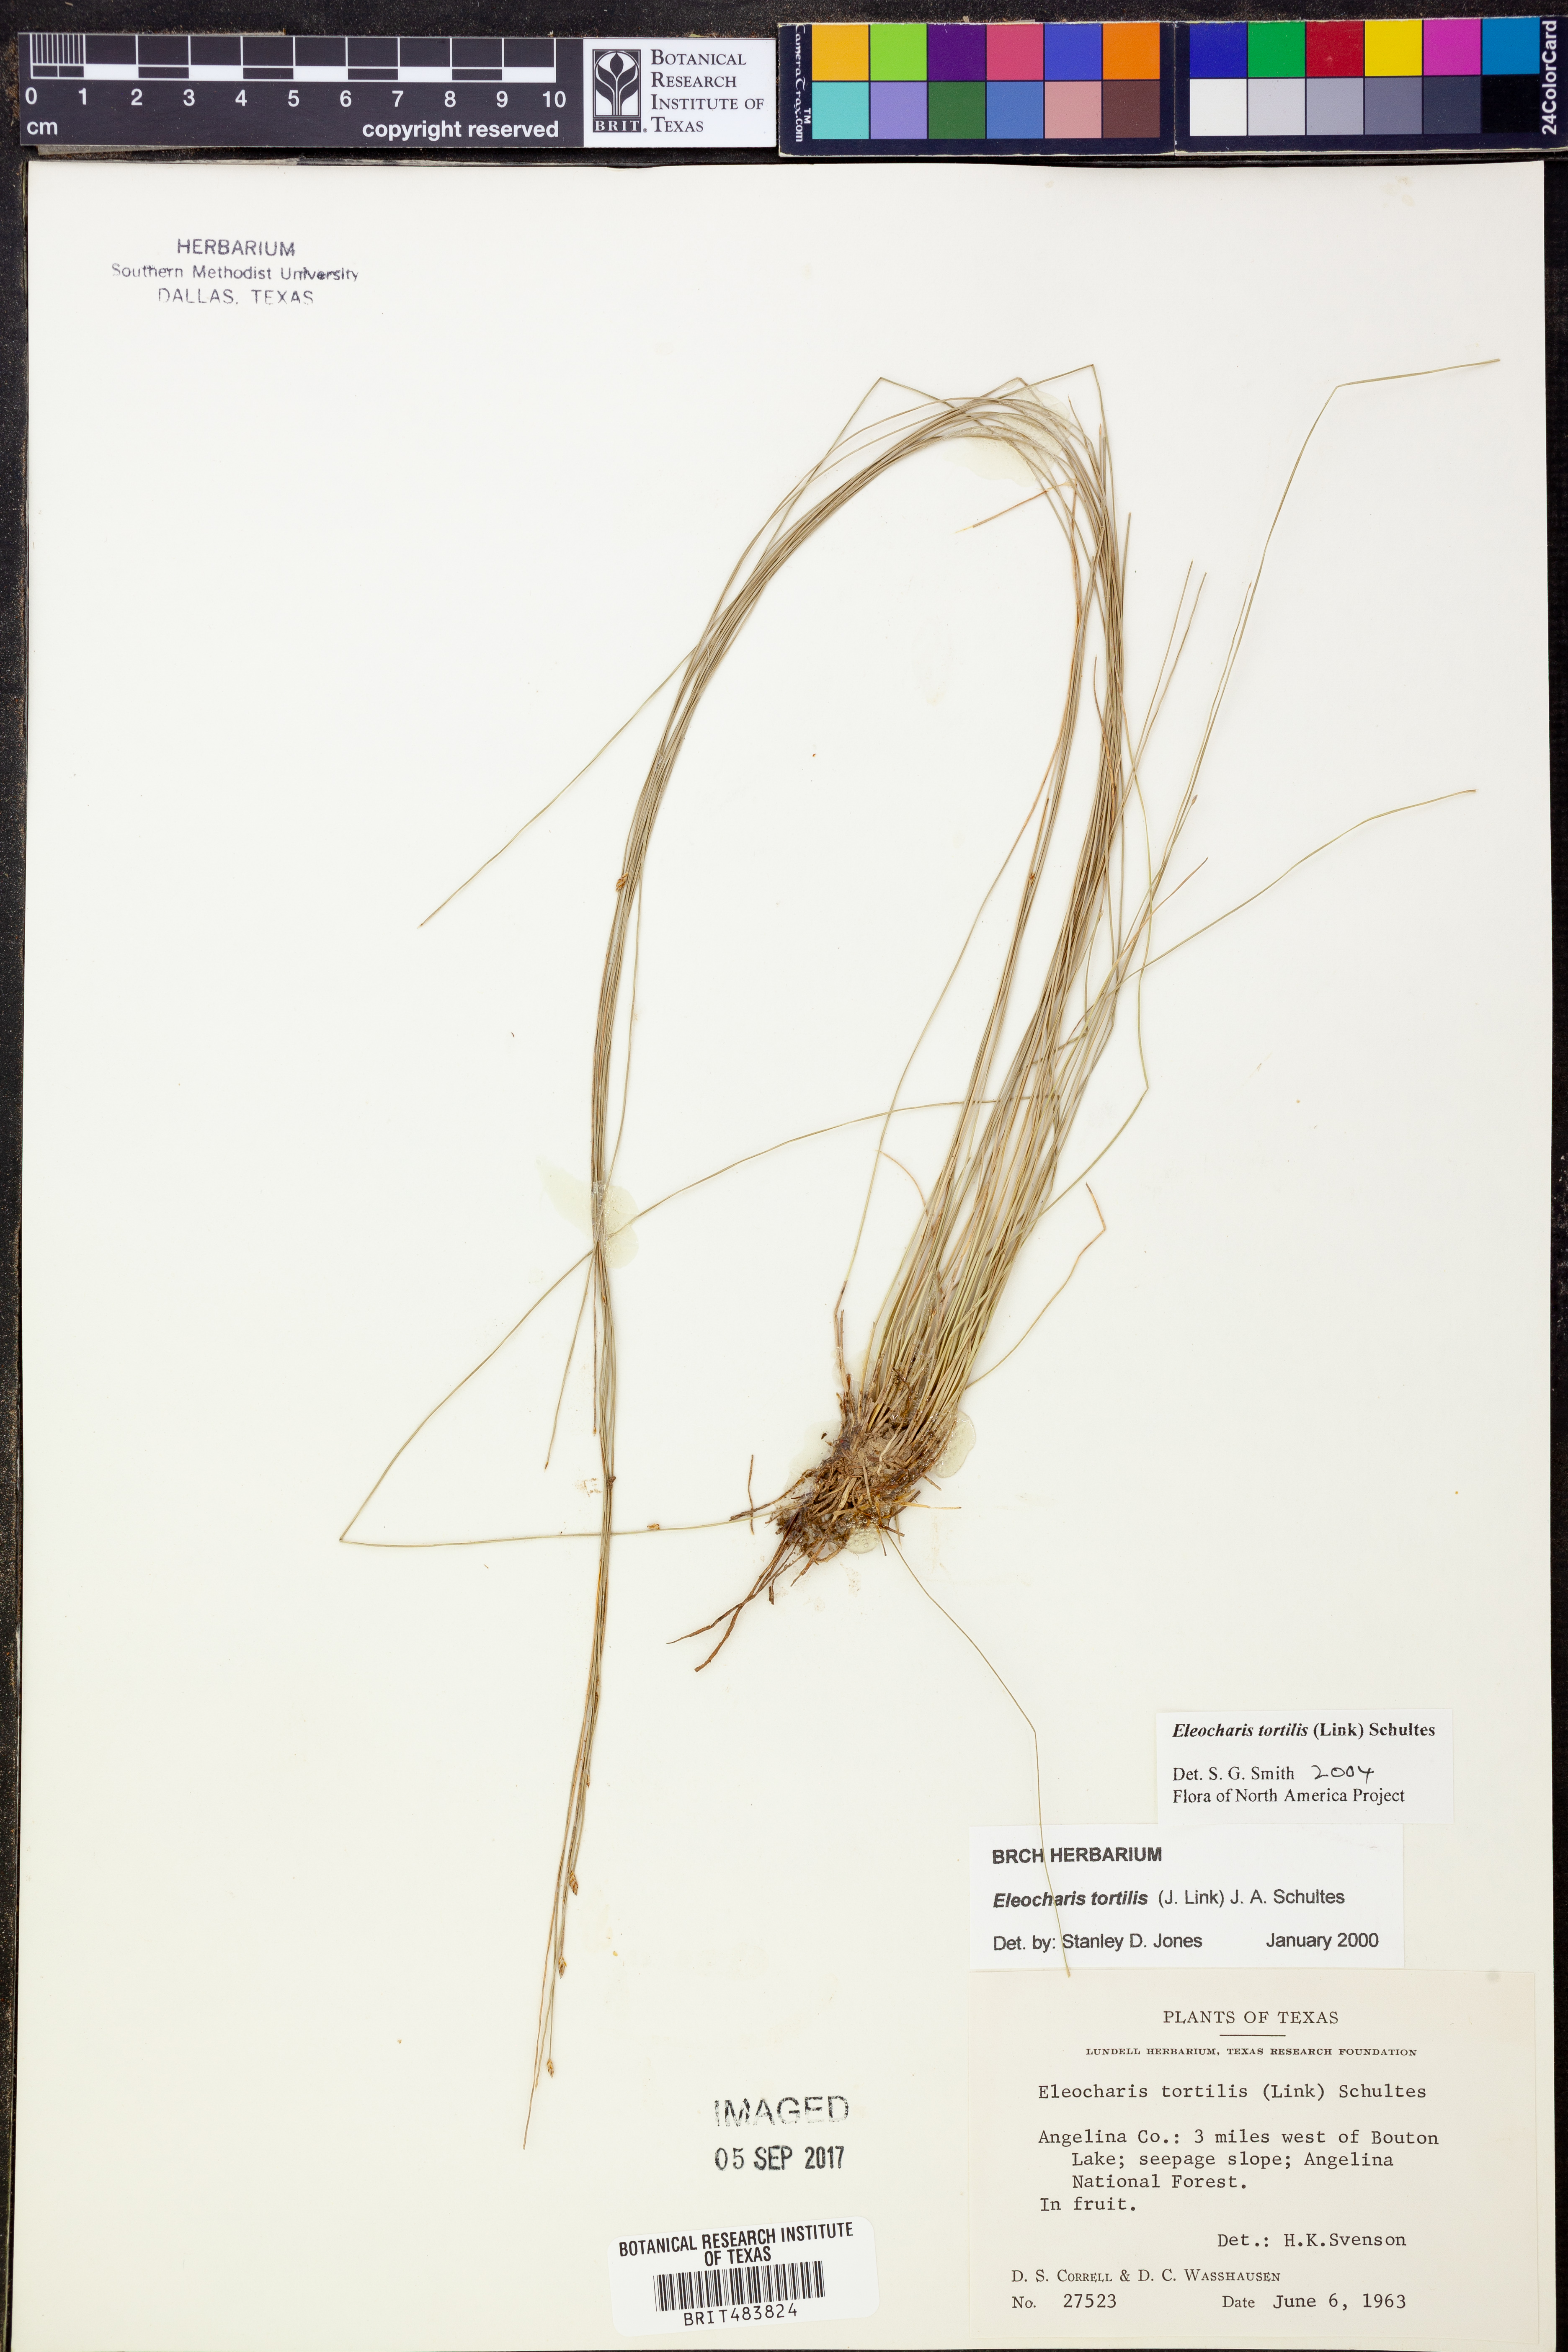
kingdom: Plantae
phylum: Tracheophyta
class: Liliopsida
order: Poales
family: Cyperaceae
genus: Eleocharis
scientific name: Eleocharis tortilis
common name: Twisted spike sedge
